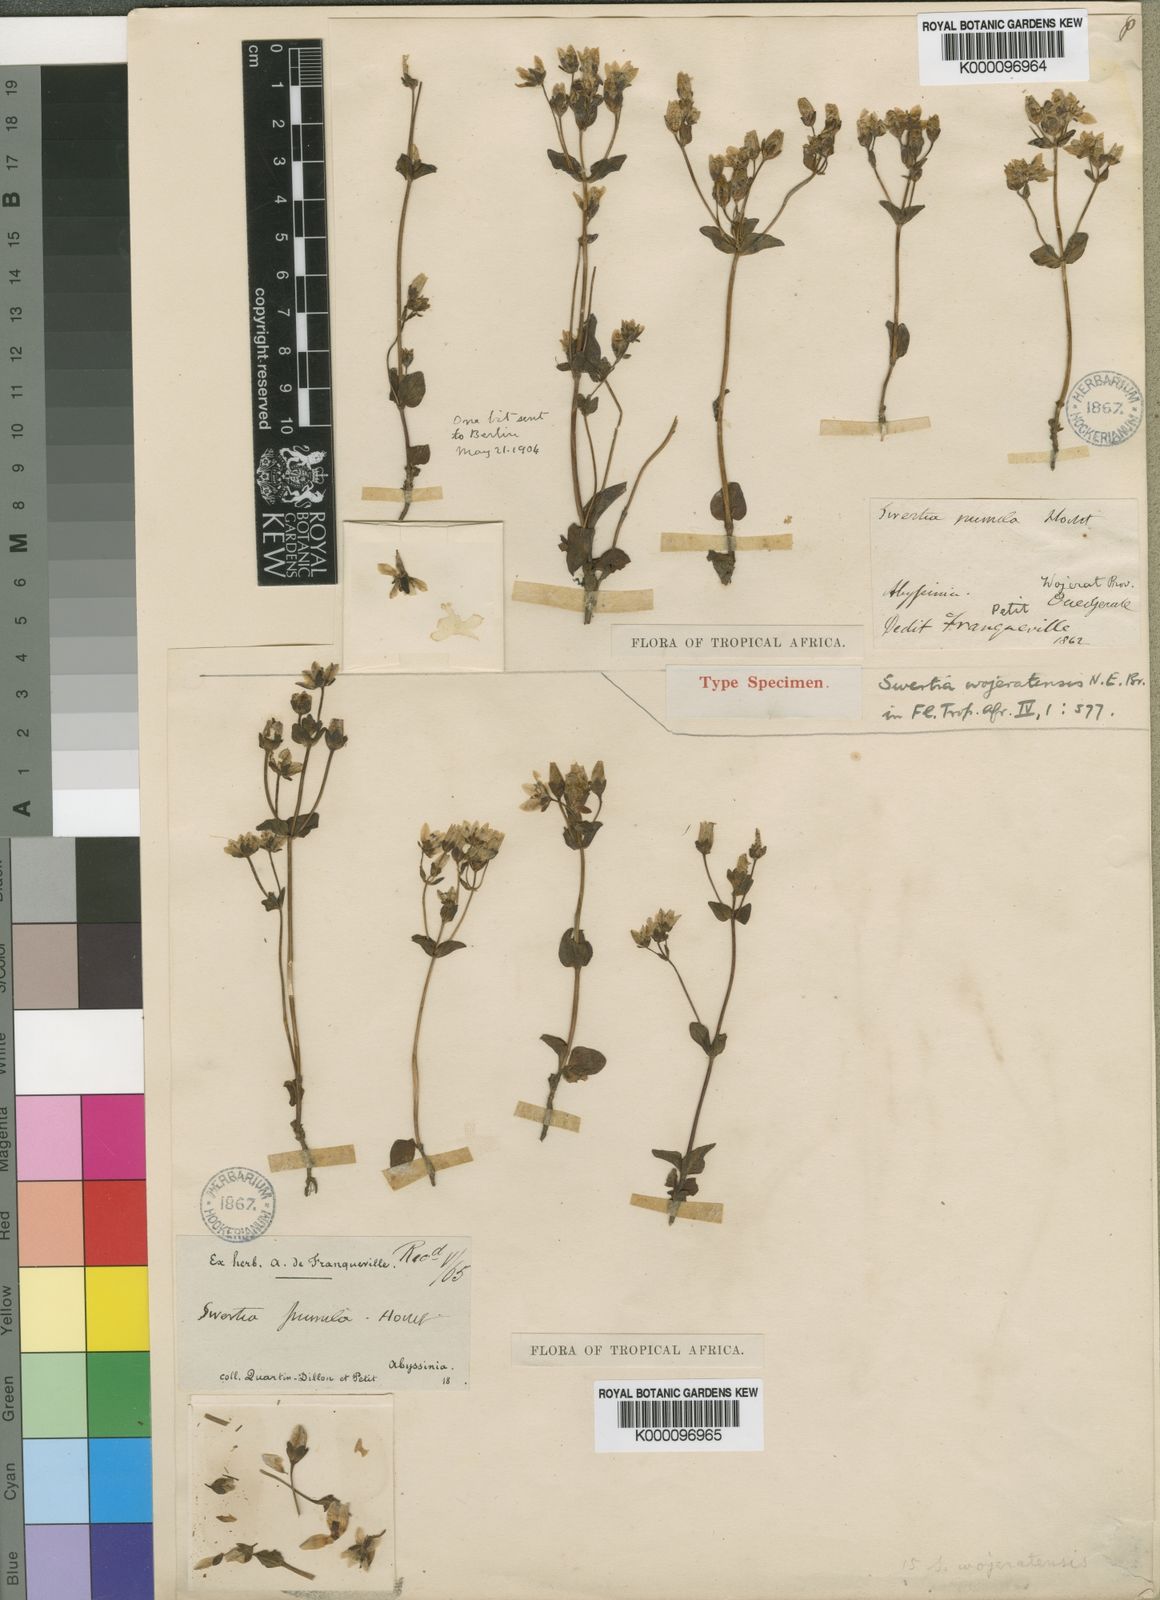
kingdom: Plantae
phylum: Tracheophyta
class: Magnoliopsida
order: Gentianales
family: Gentianaceae
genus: Swertia
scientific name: Swertia pumila
